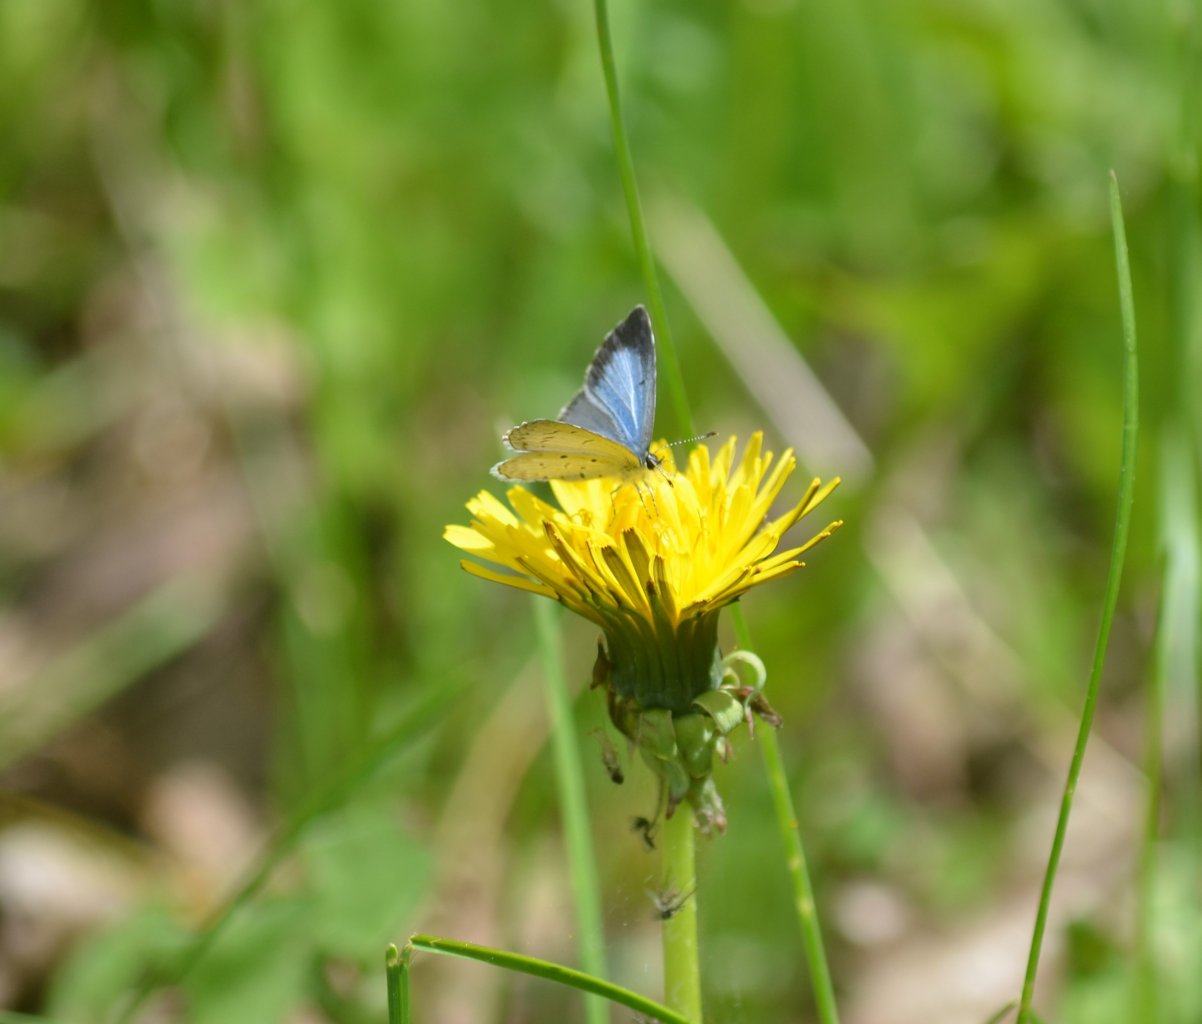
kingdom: Animalia
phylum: Arthropoda
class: Insecta
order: Lepidoptera
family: Lycaenidae
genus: Celastrina
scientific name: Celastrina
